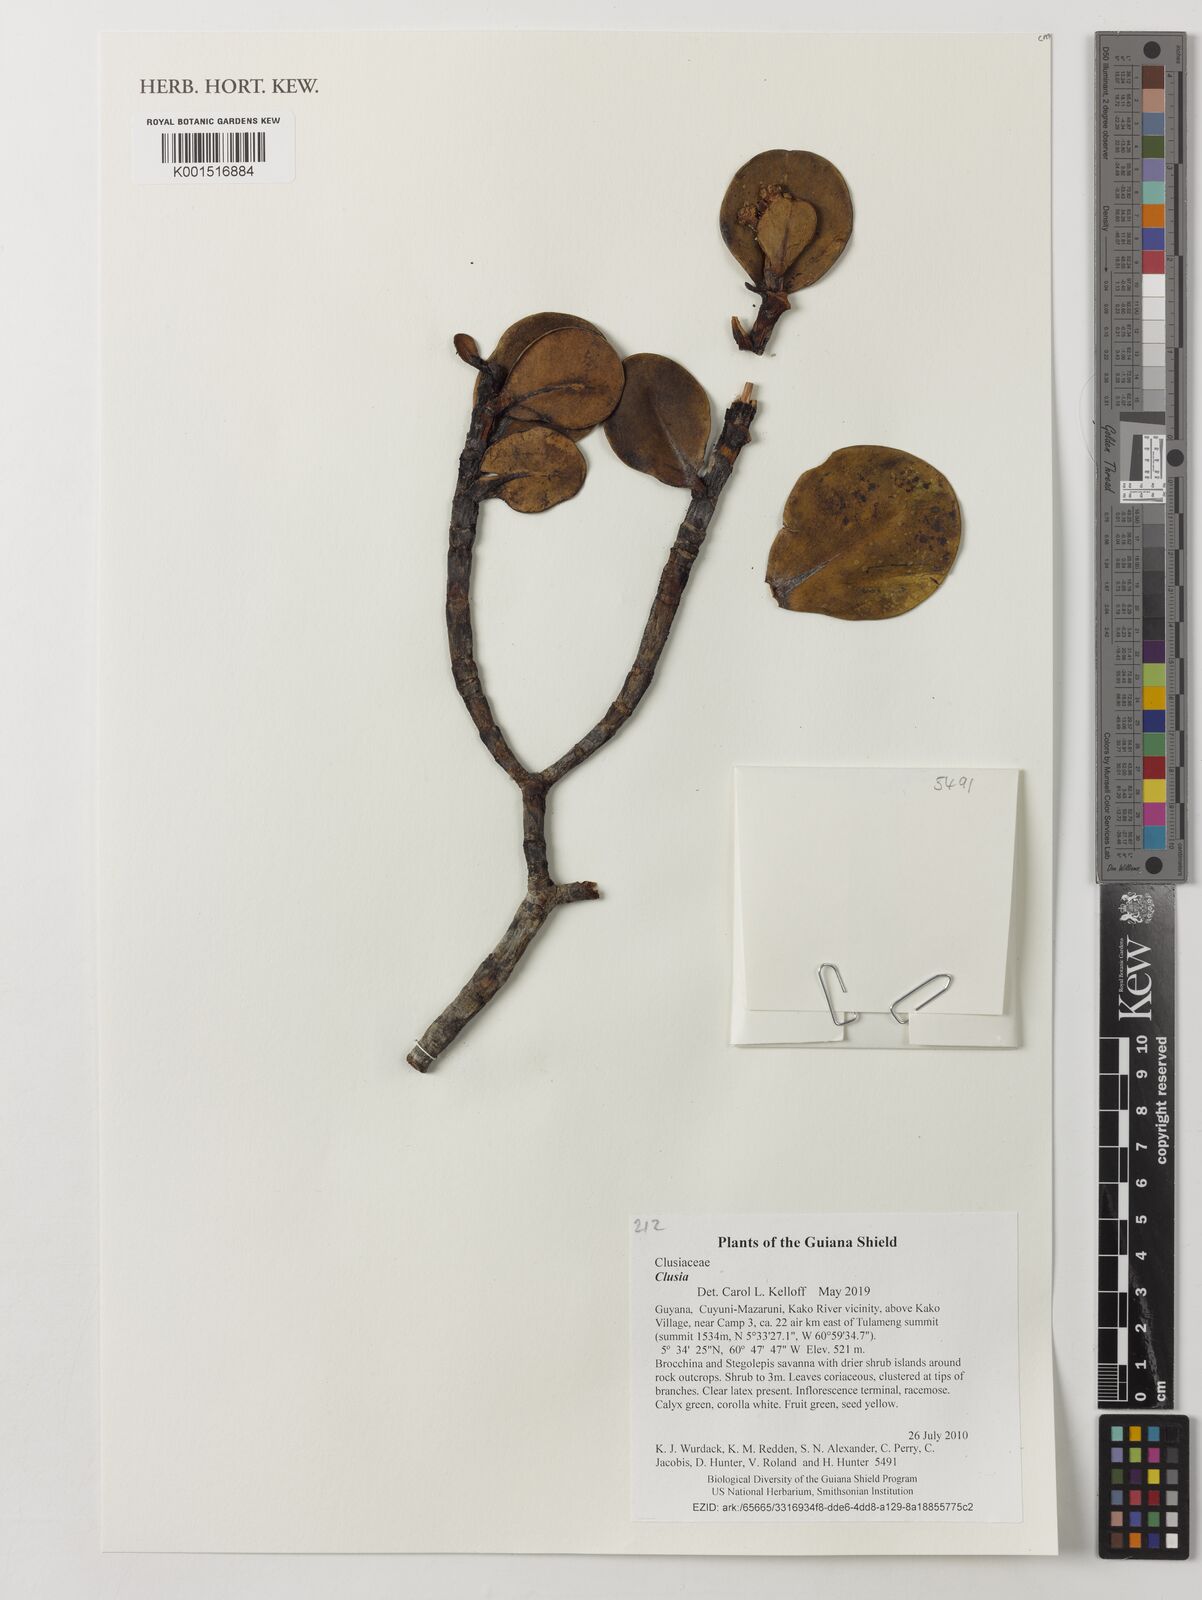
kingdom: Plantae
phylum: Tracheophyta
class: Magnoliopsida
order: Malpighiales
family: Clusiaceae
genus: Clusia
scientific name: Clusia
